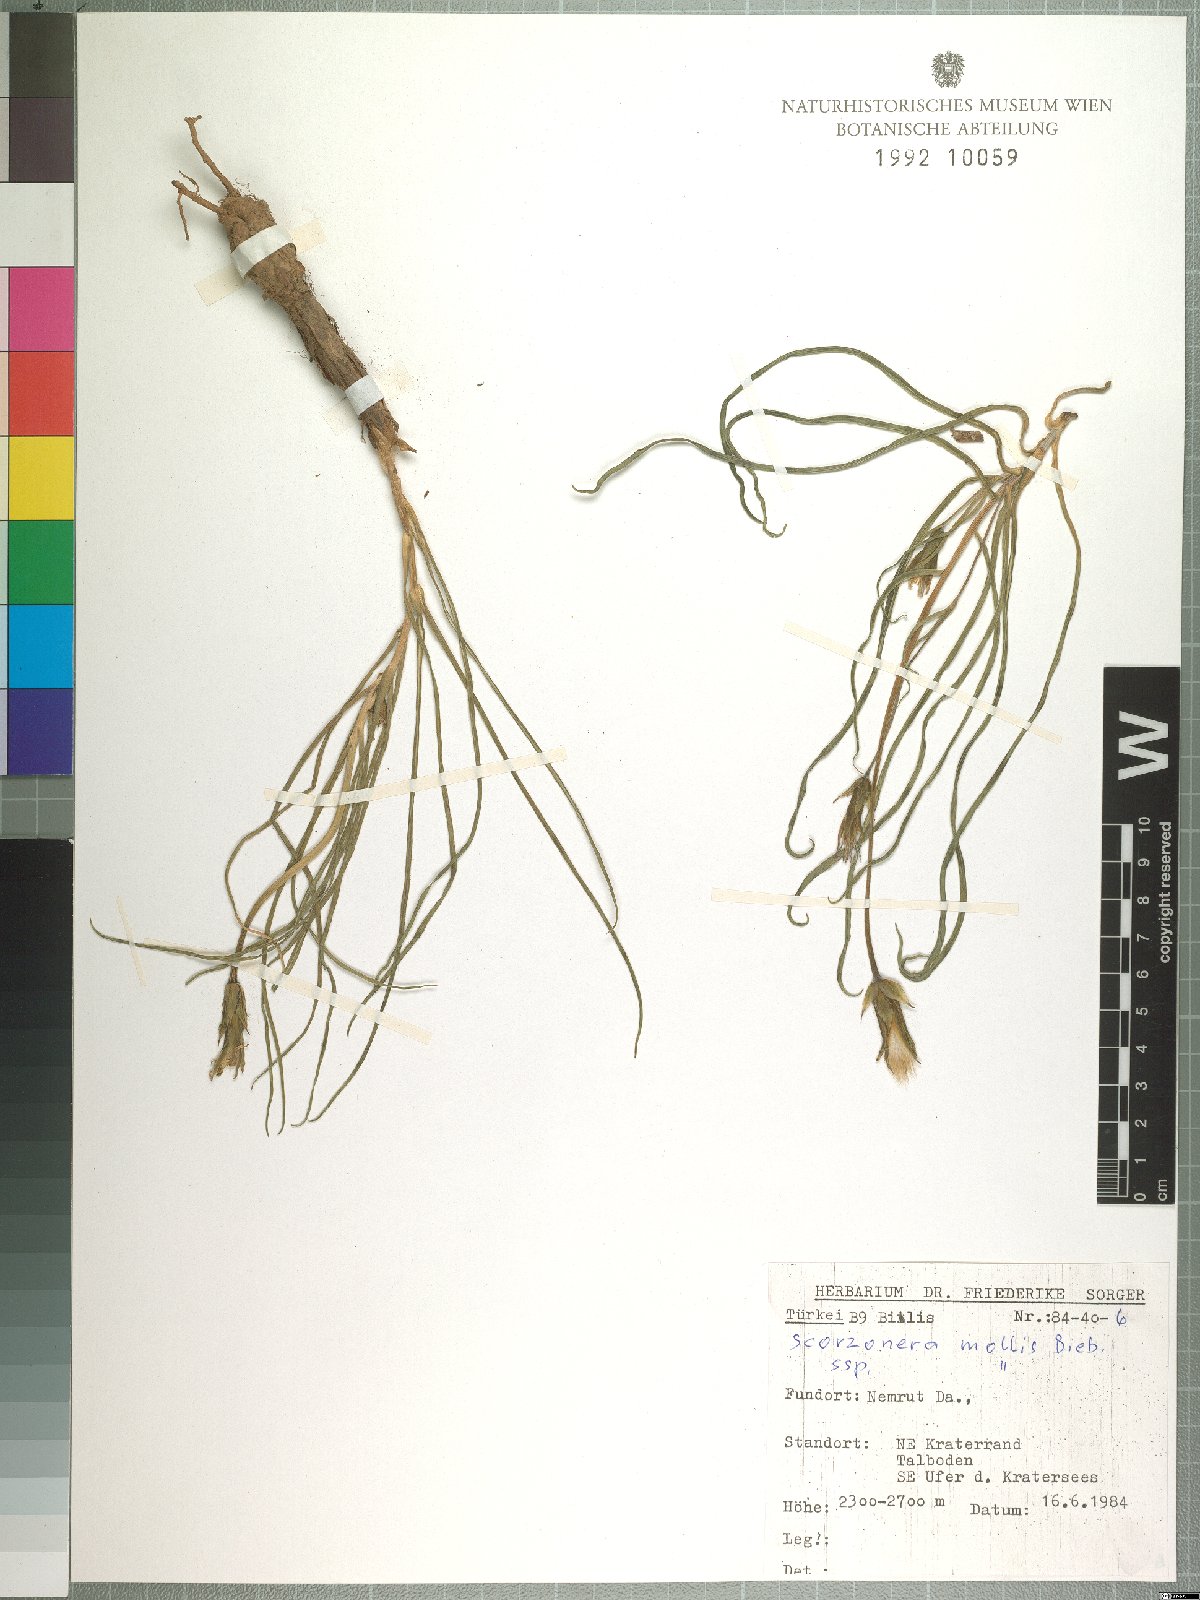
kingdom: Plantae
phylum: Tracheophyta
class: Magnoliopsida
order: Asterales
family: Asteraceae
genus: Candollea
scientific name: Candollea mollis
